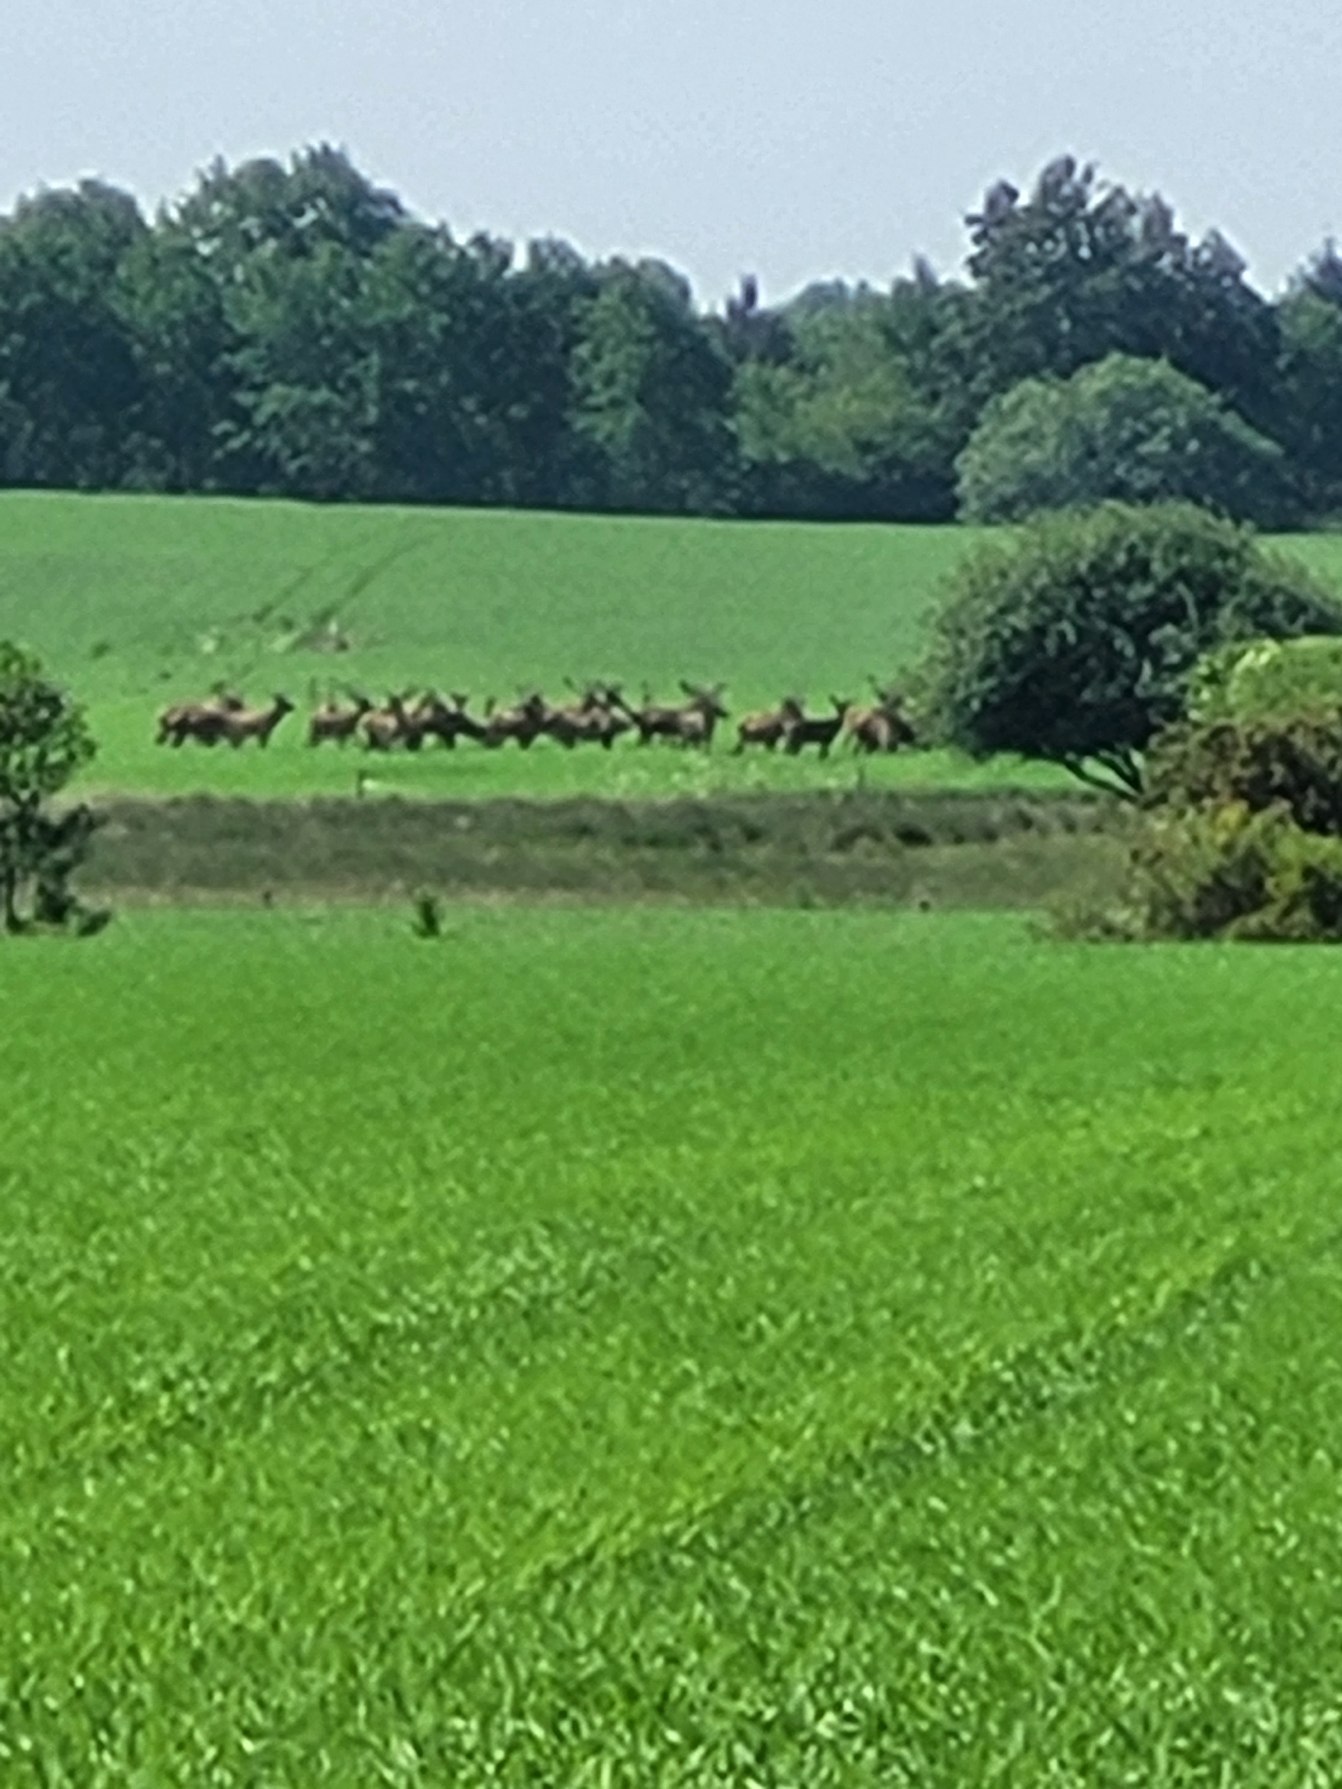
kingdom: Animalia
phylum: Chordata
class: Mammalia
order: Artiodactyla
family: Cervidae
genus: Cervus
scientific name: Cervus elaphus
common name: Krondyr
